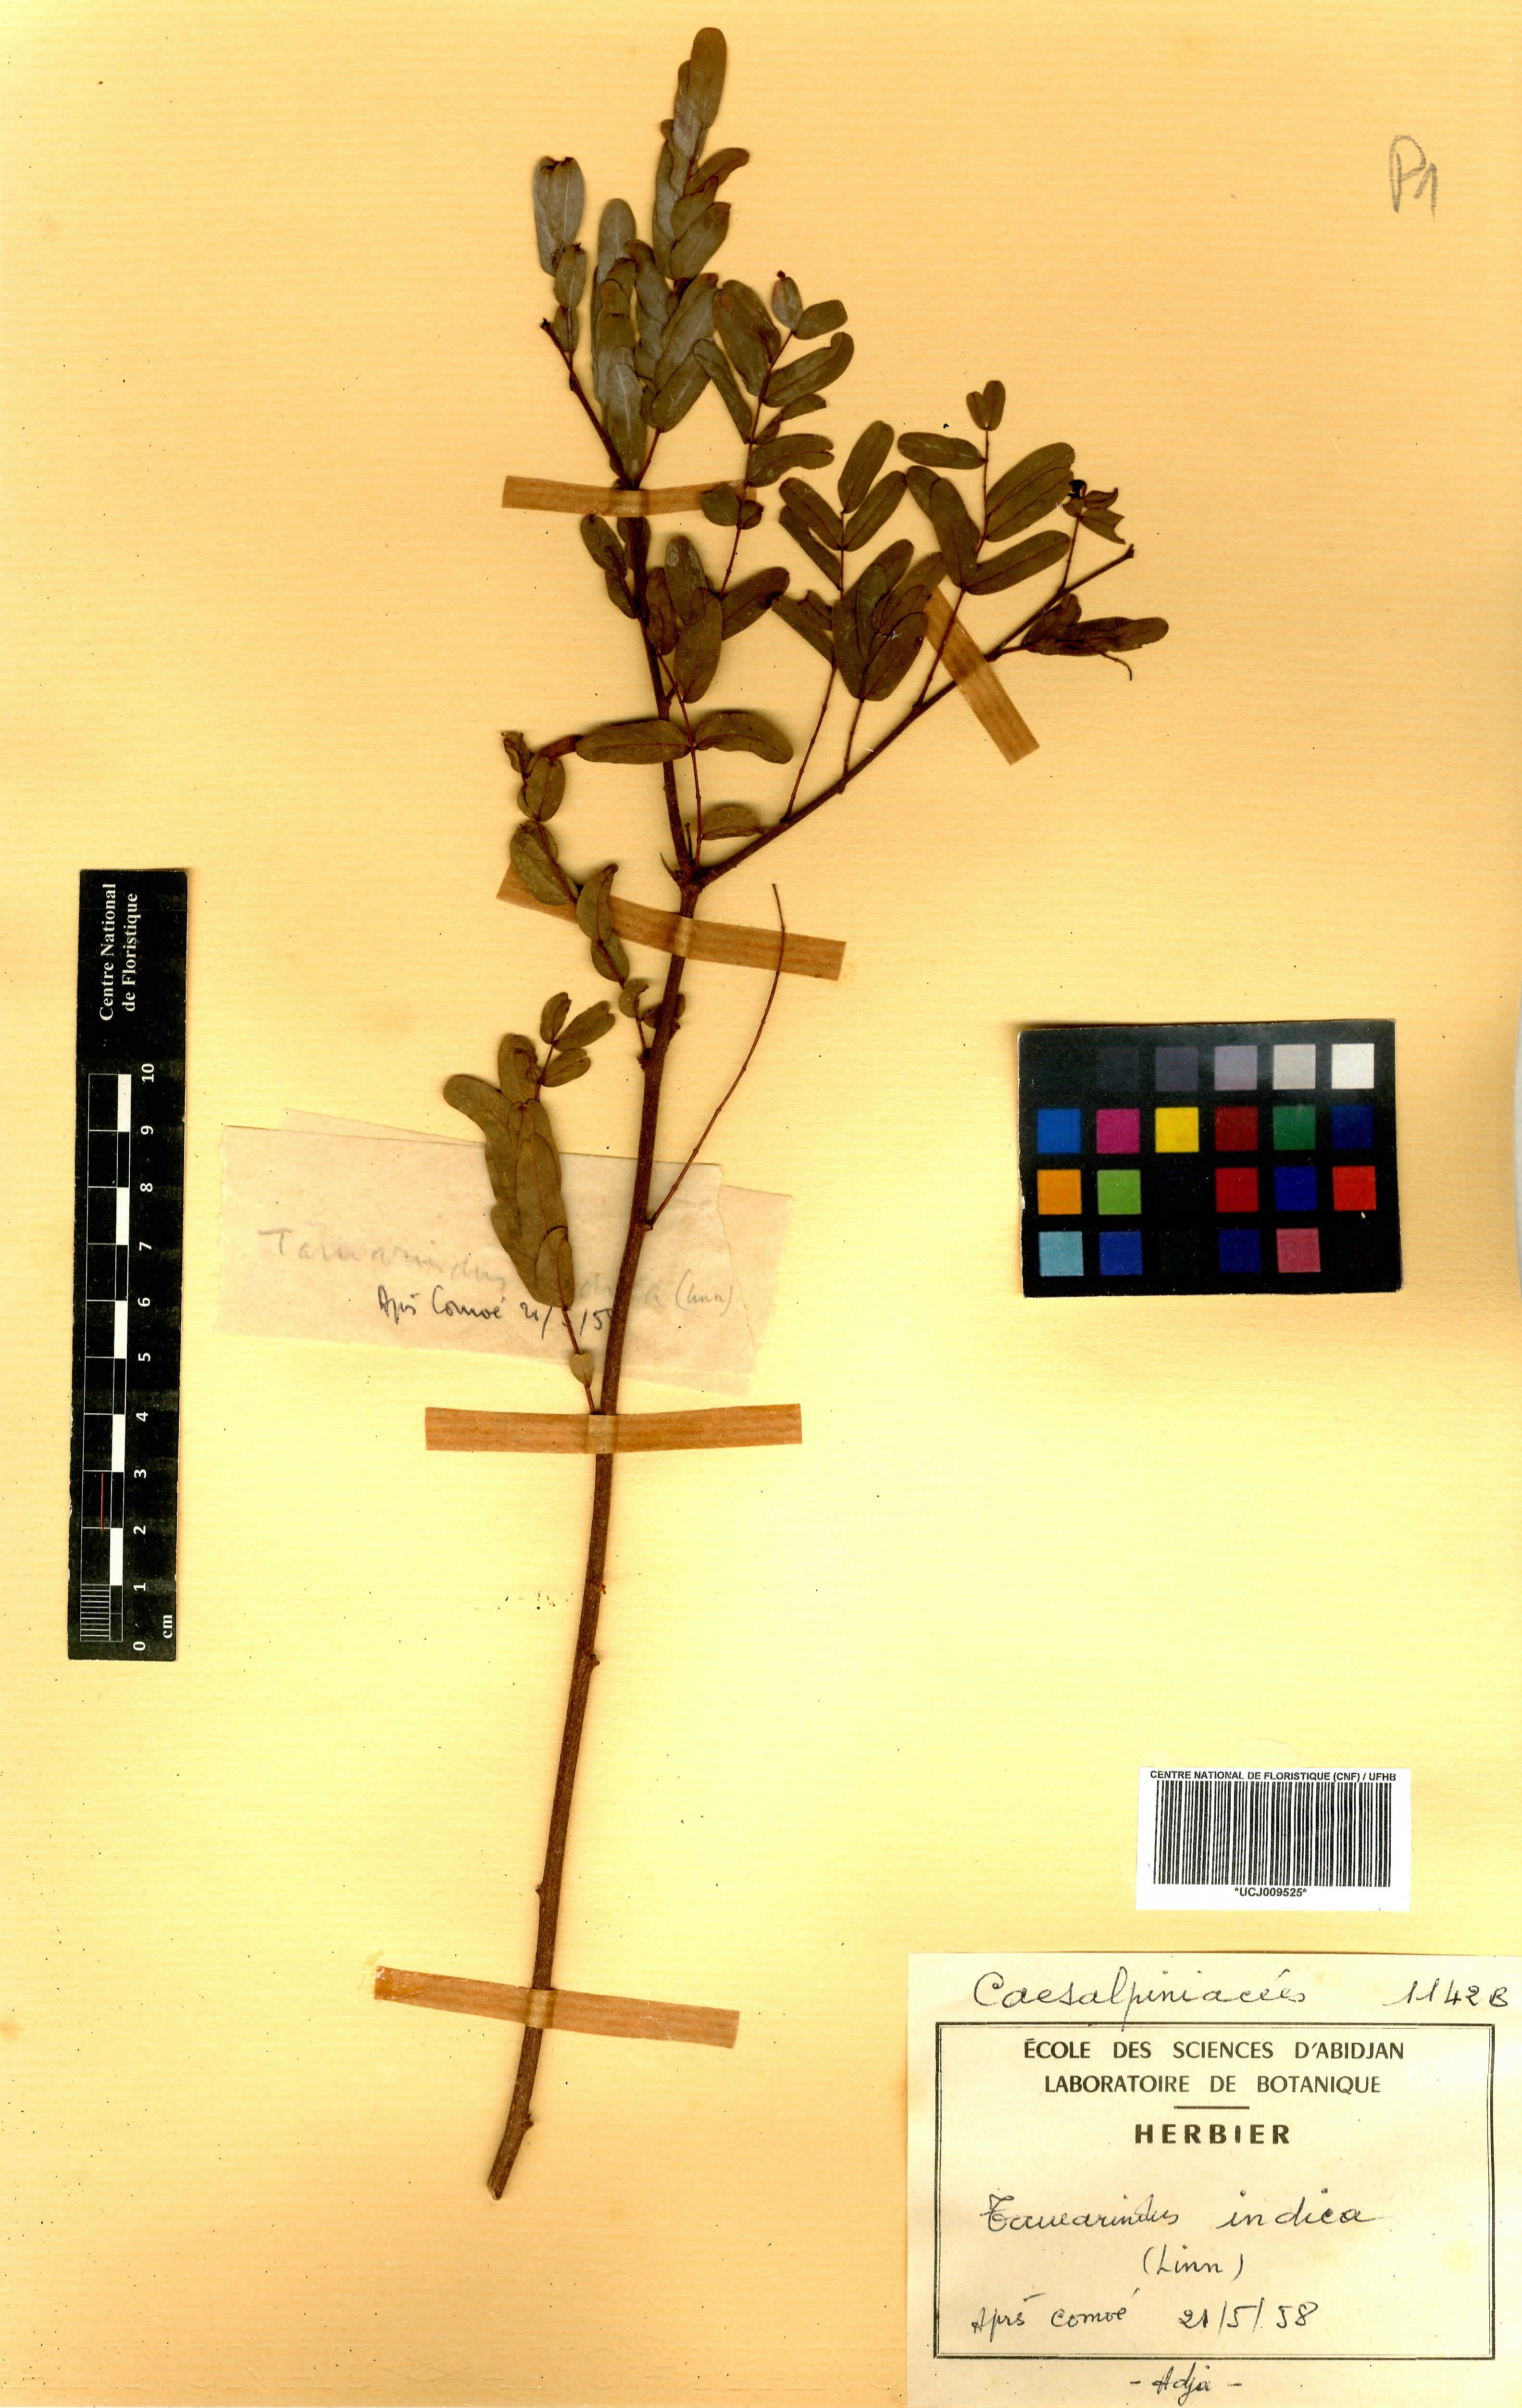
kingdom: Plantae
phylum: Tracheophyta
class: Magnoliopsida
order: Fabales
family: Fabaceae
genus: Tamarindus
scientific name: Tamarindus indica
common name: Tamarind
